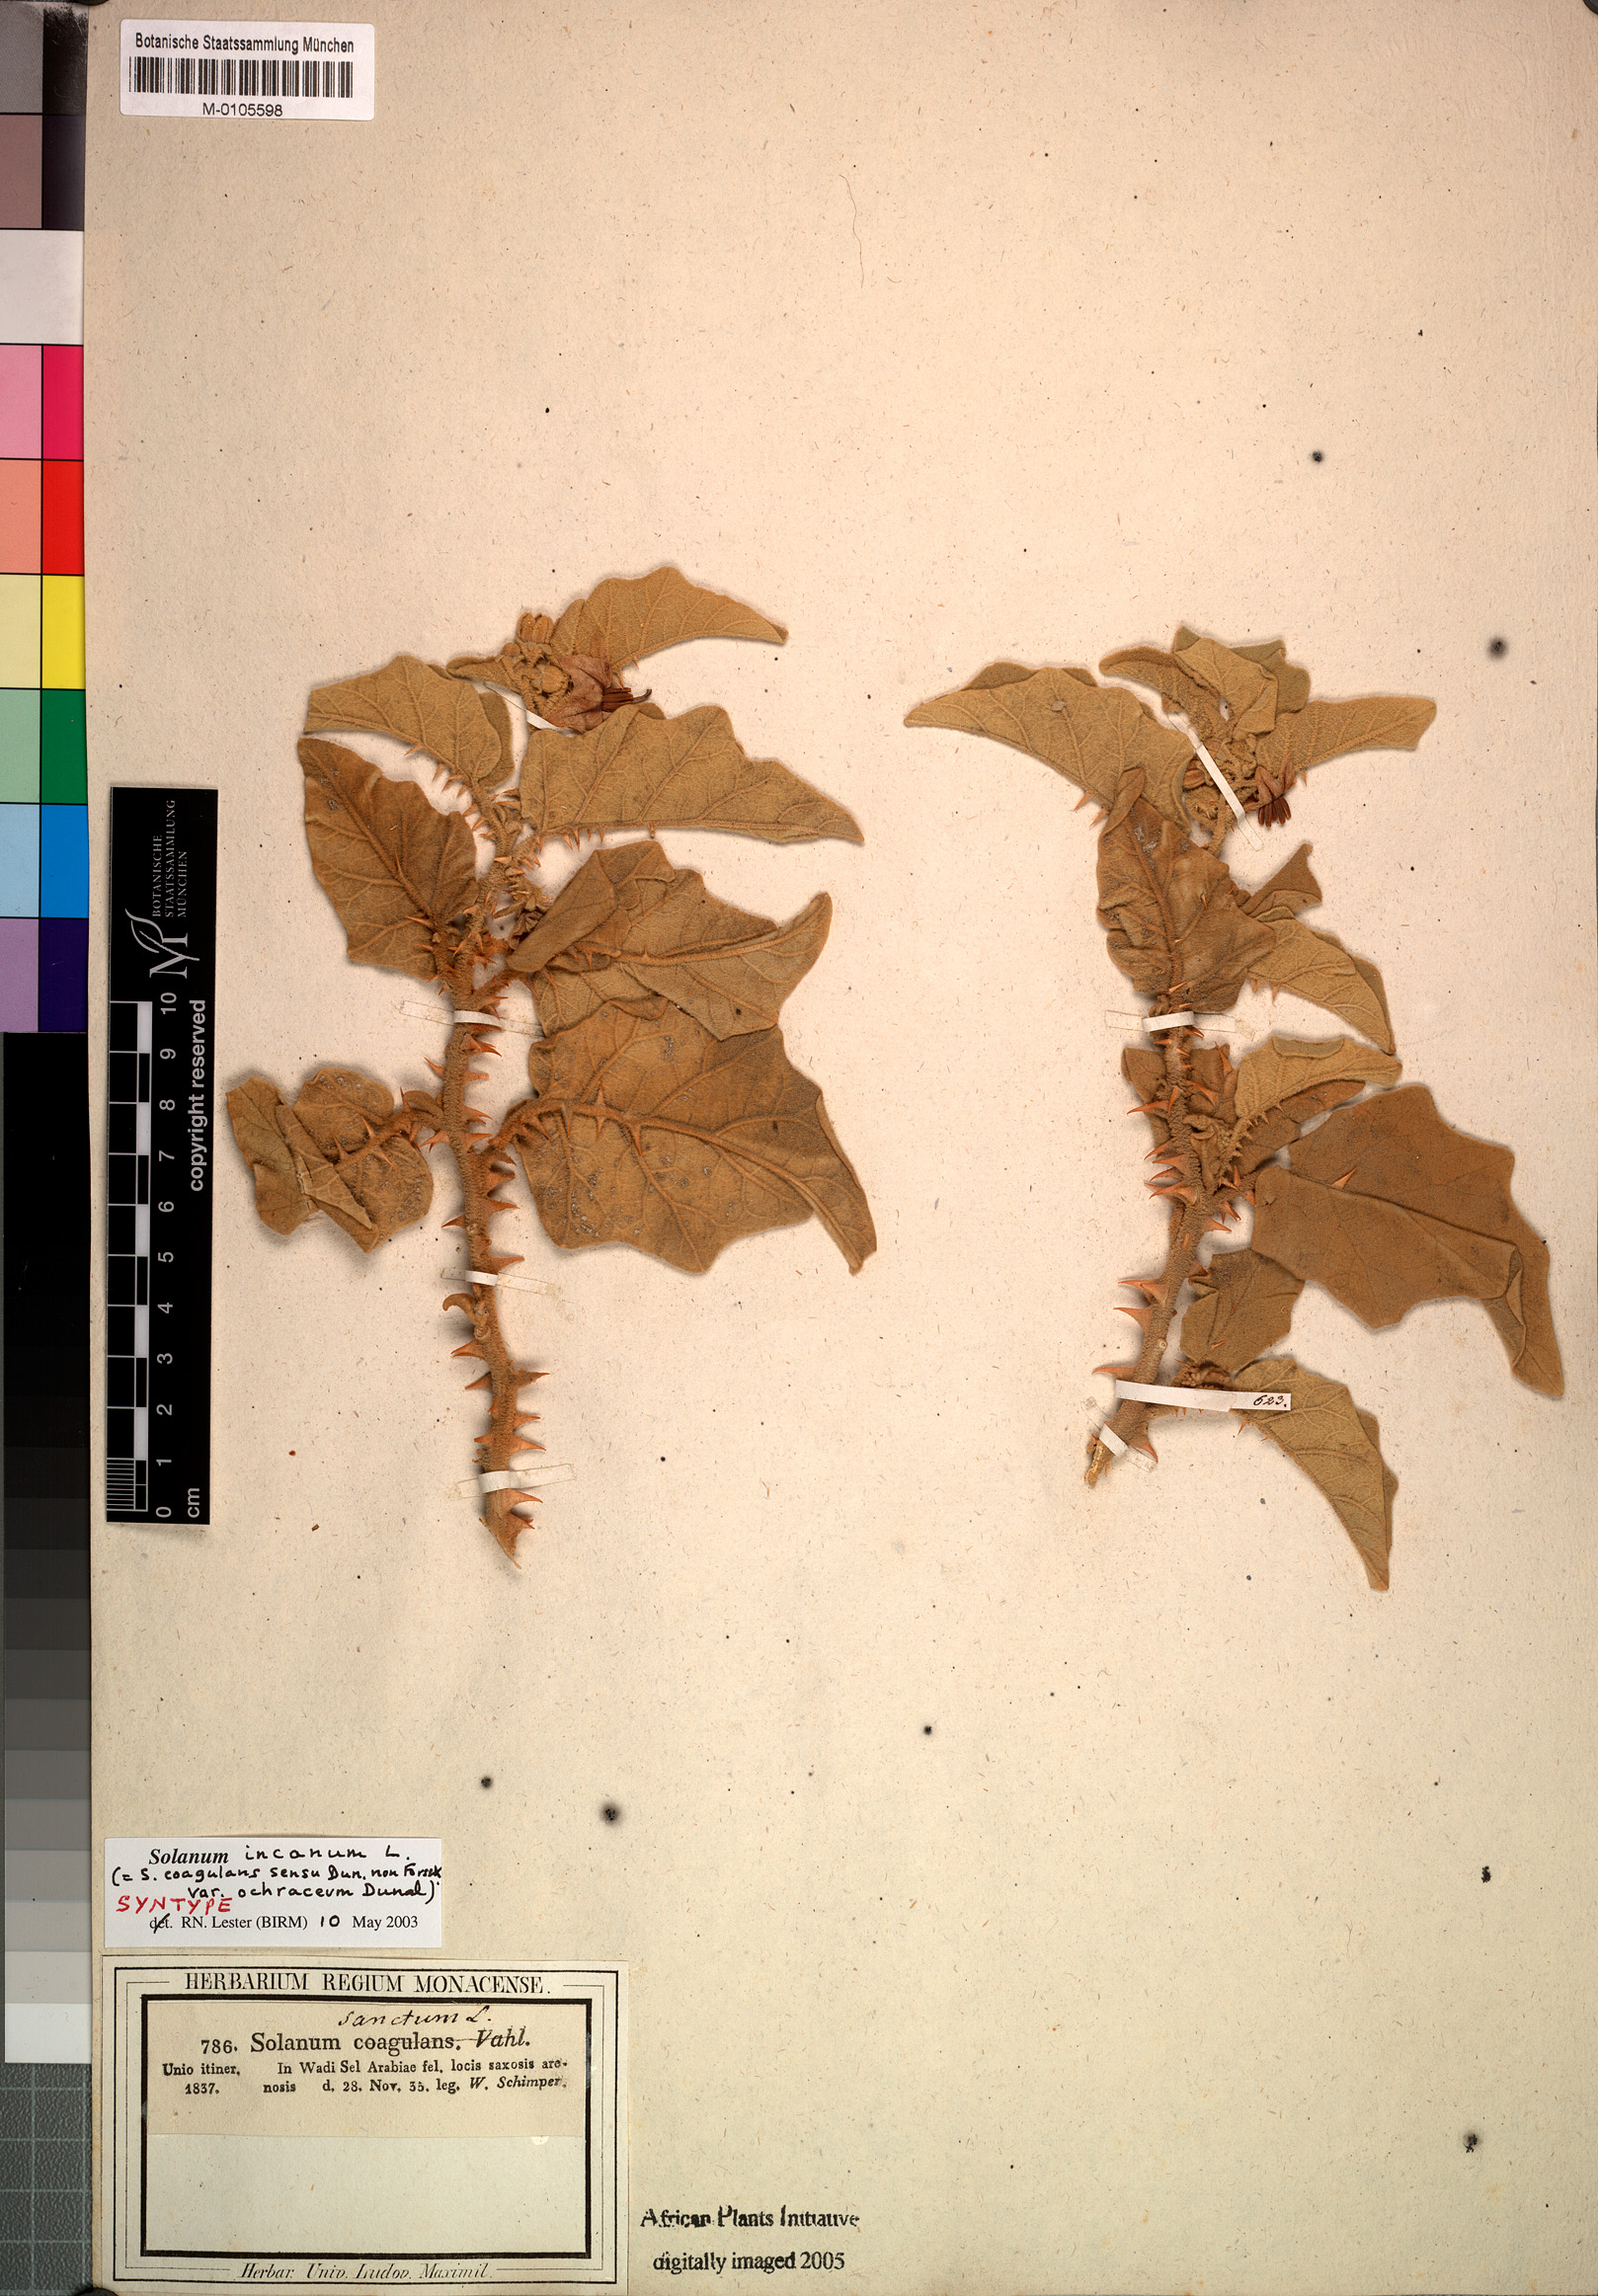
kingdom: Plantae
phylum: Tracheophyta
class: Magnoliopsida
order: Solanales
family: Solanaceae
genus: Solanum
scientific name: Solanum incanum
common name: Bitter apple
